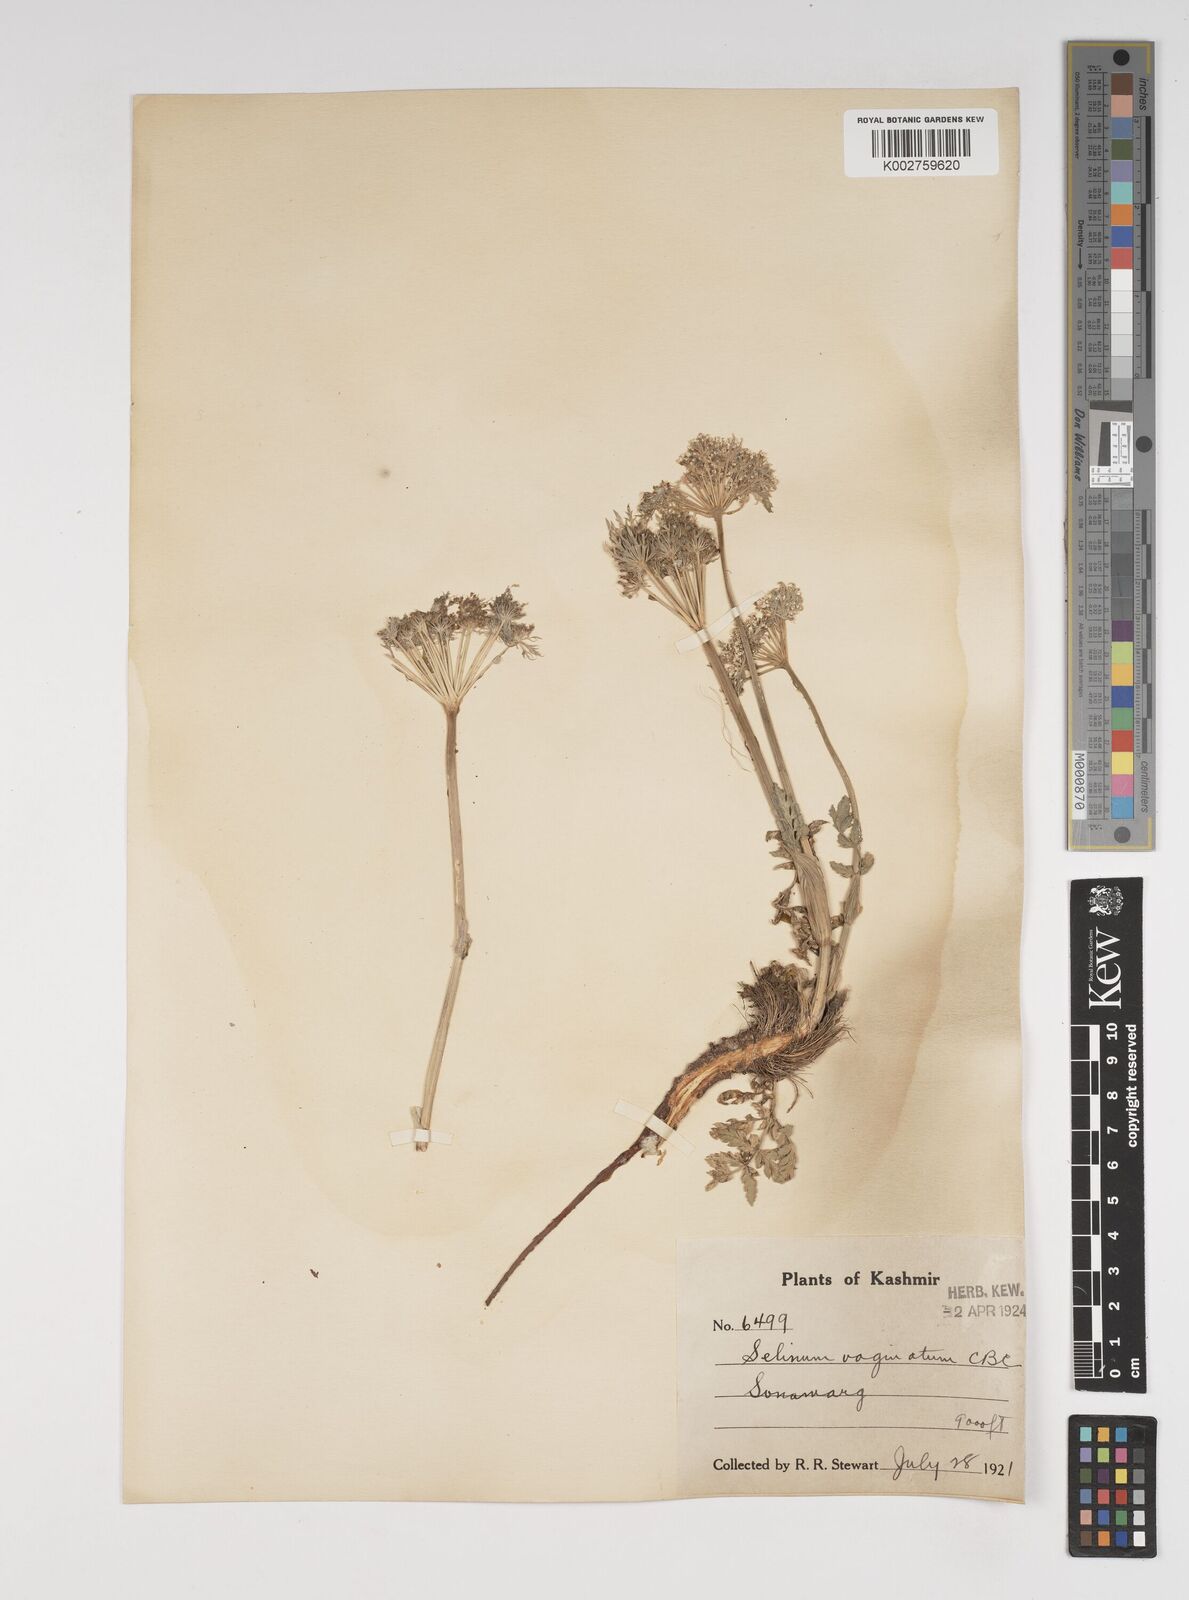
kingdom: Plantae
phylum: Tracheophyta
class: Magnoliopsida
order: Apiales
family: Apiaceae
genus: Selinum
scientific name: Selinum vaginatum
